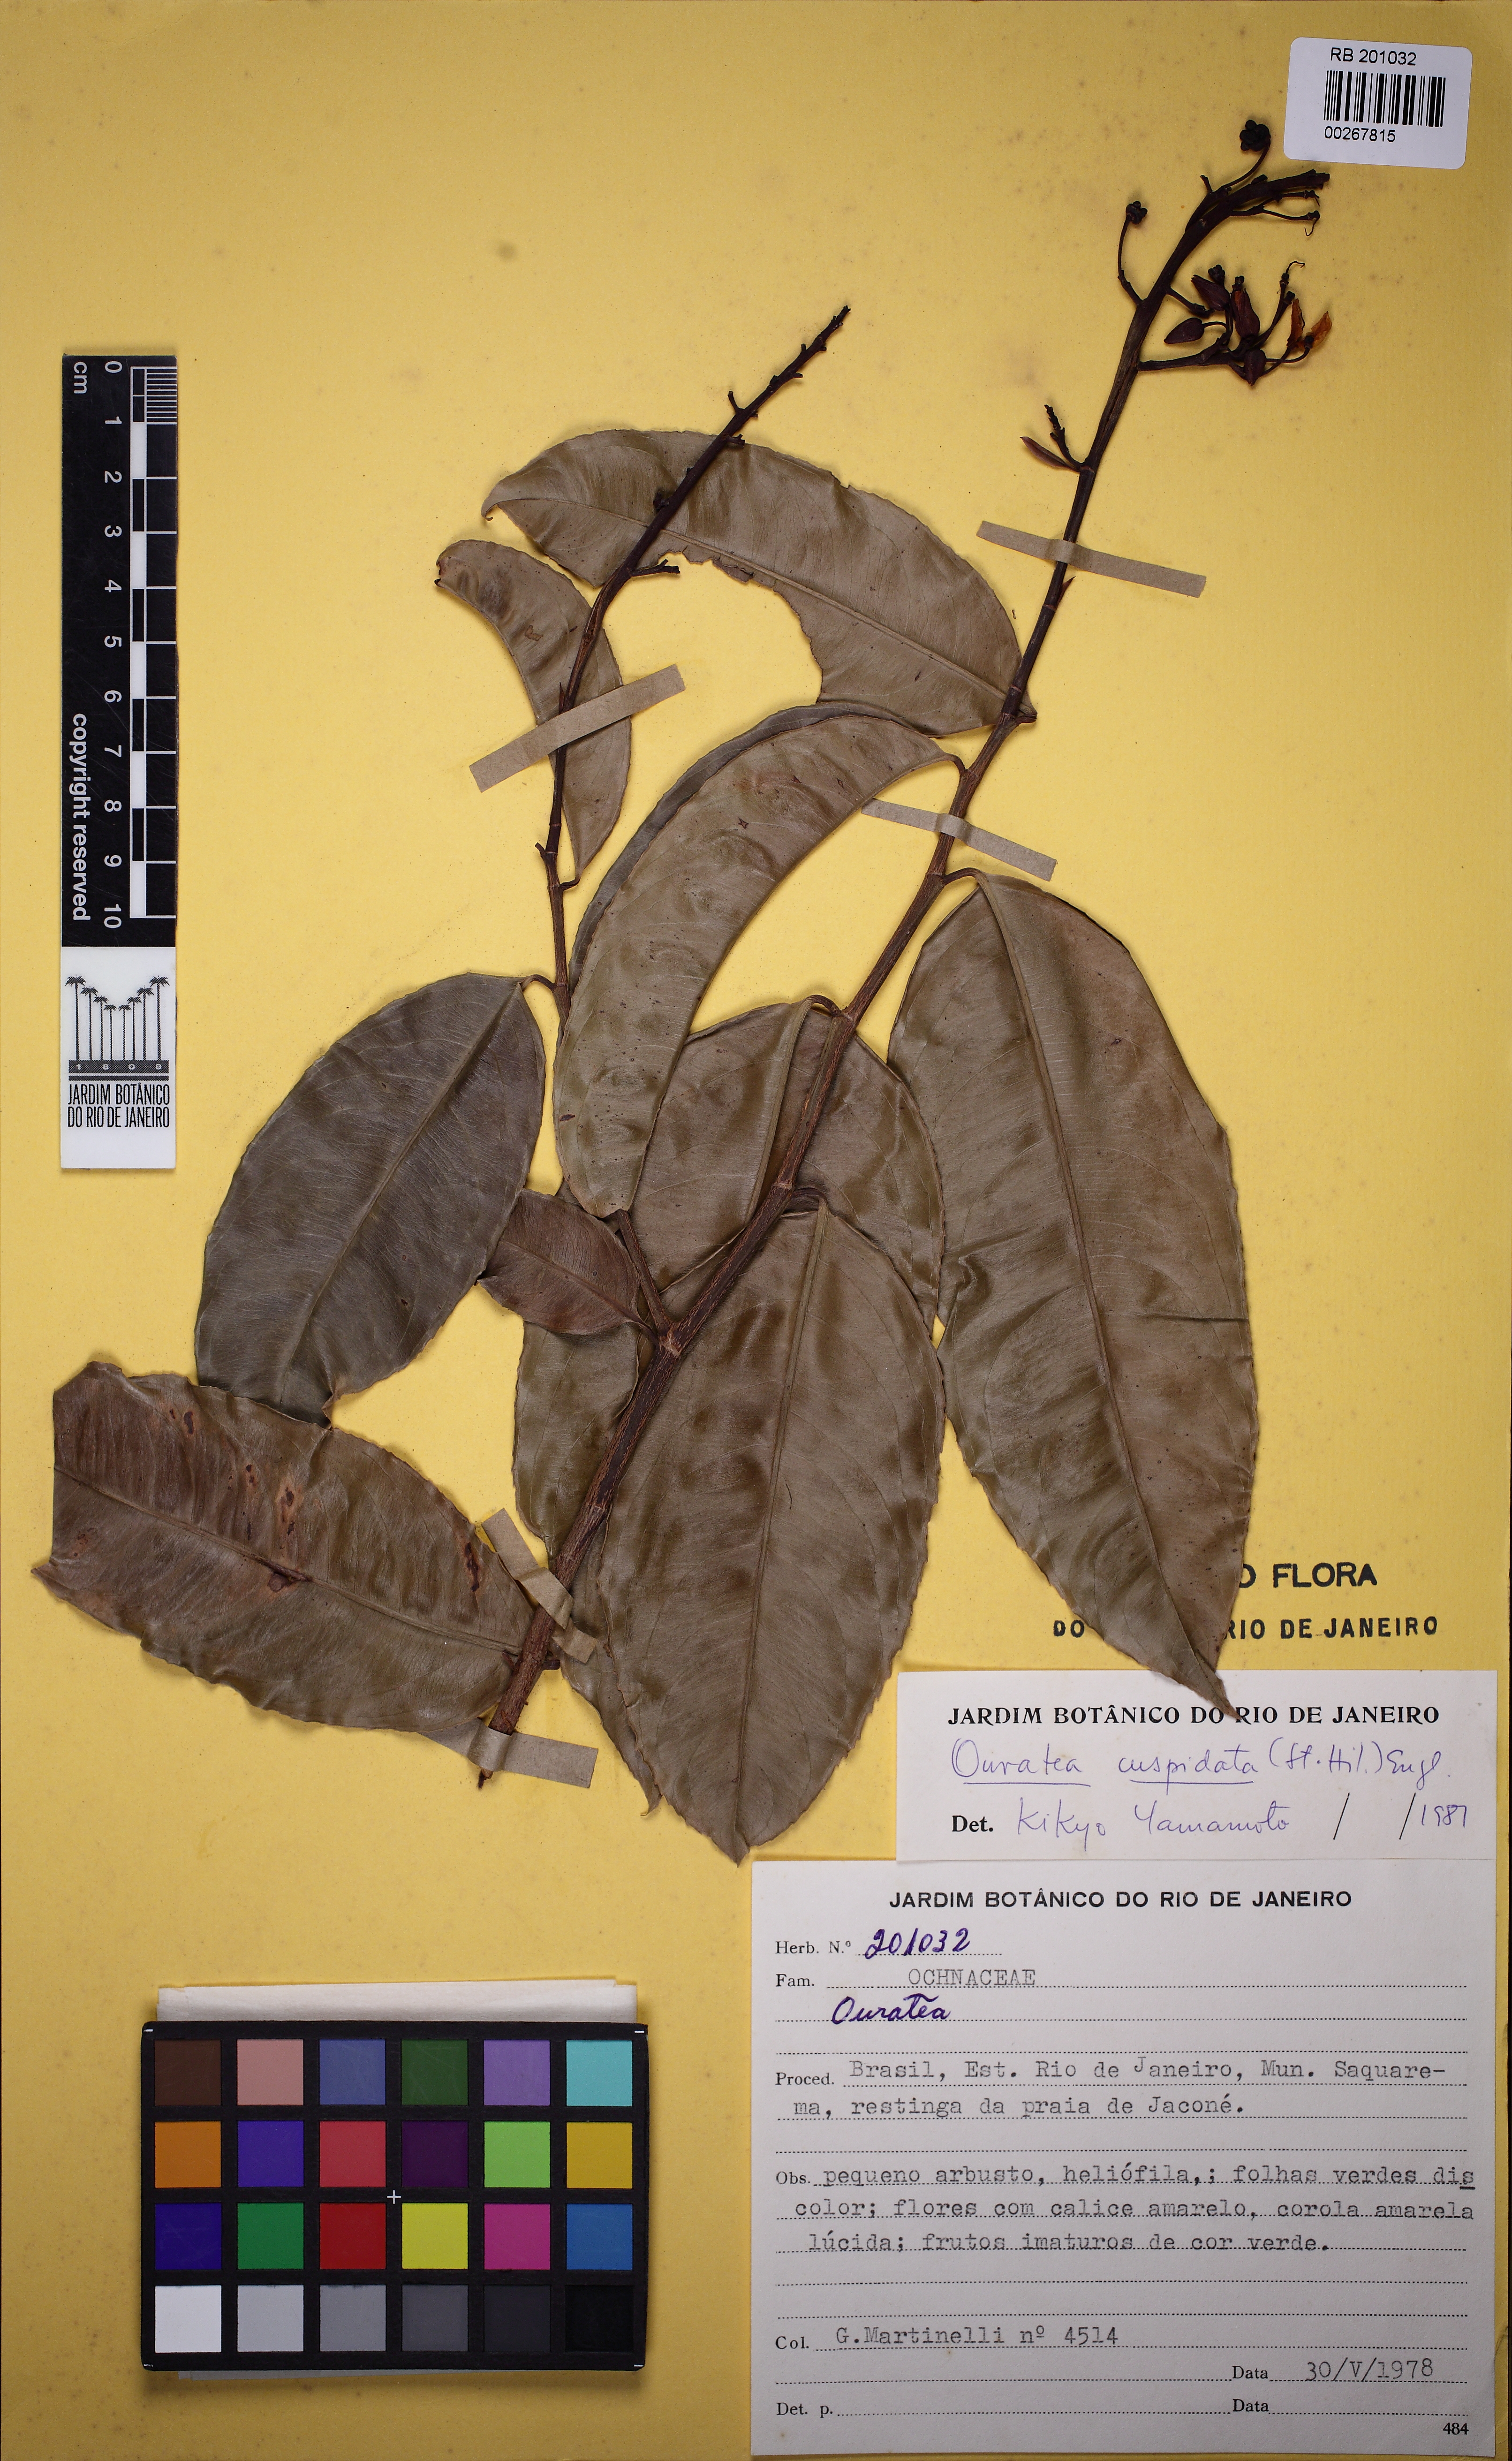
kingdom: Plantae
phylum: Tracheophyta
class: Magnoliopsida
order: Malpighiales
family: Ochnaceae
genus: Ouratea
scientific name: Ouratea cuspidata
